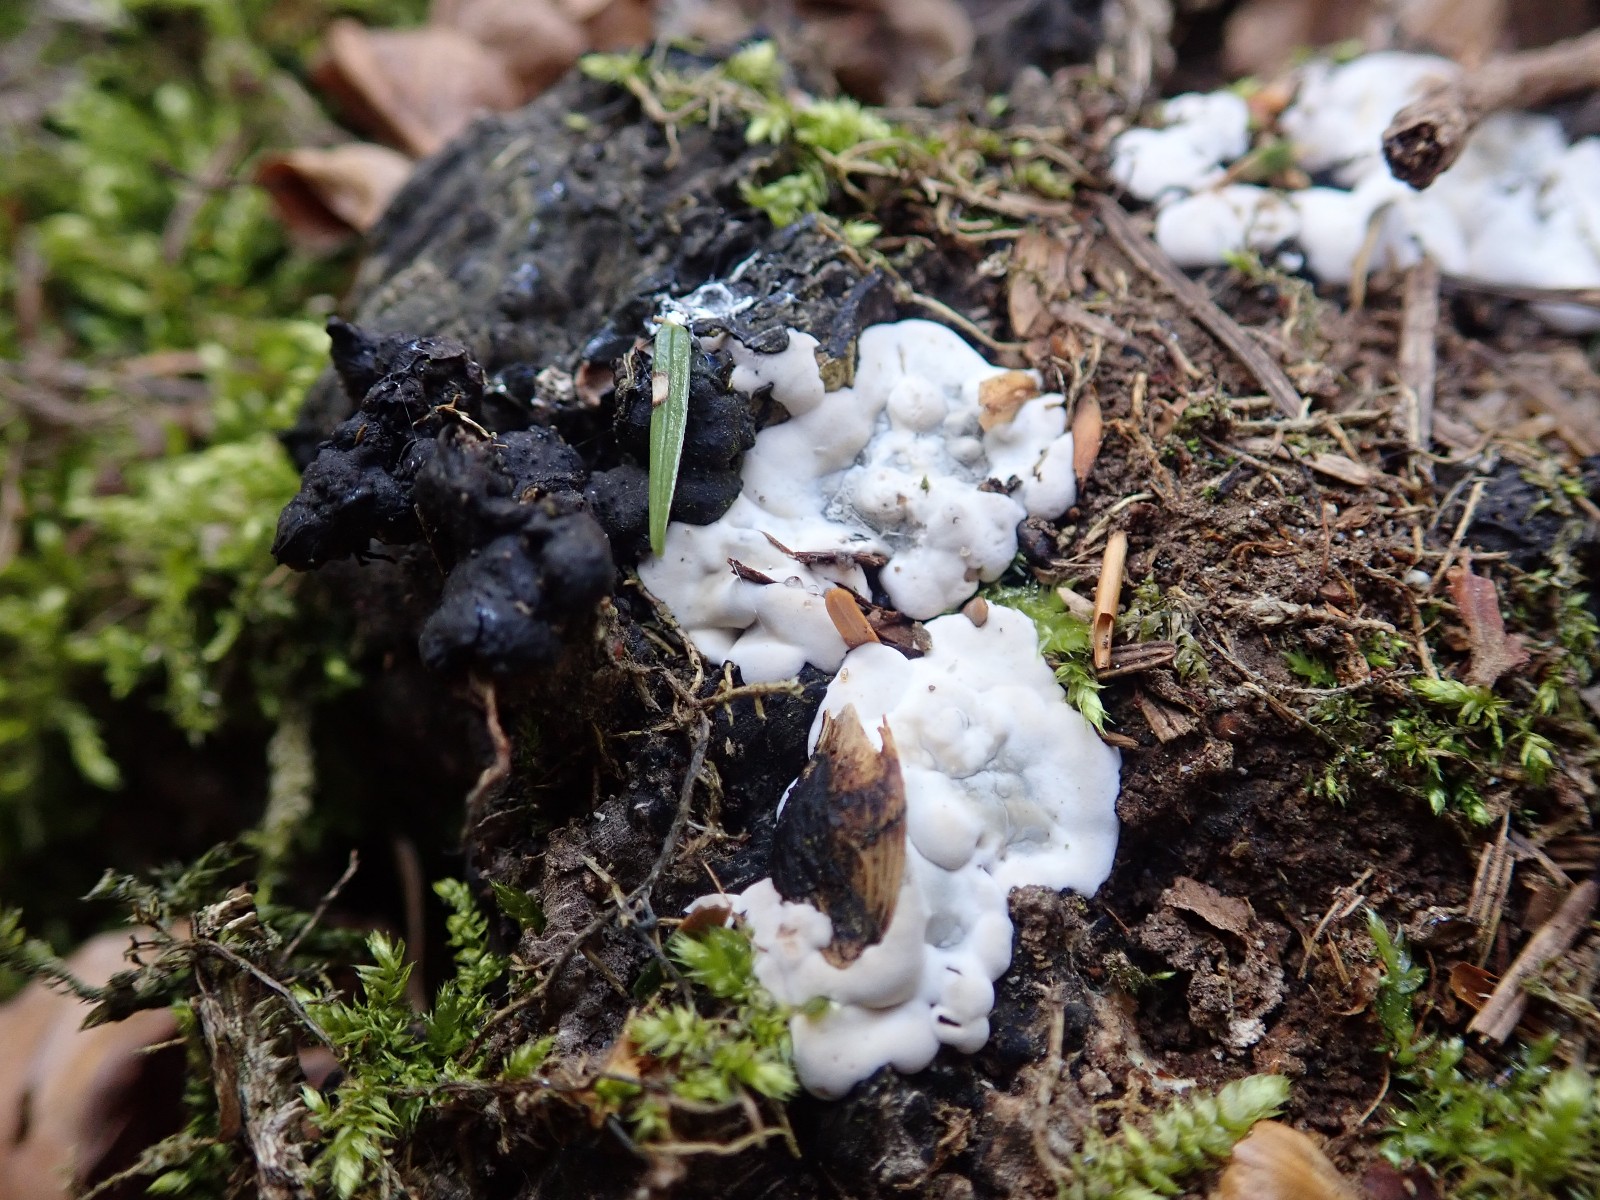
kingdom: Fungi
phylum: Ascomycota
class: Sordariomycetes
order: Xylariales
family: Xylariaceae
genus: Kretzschmaria
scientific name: Kretzschmaria deusta
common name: stor kulsvamp
